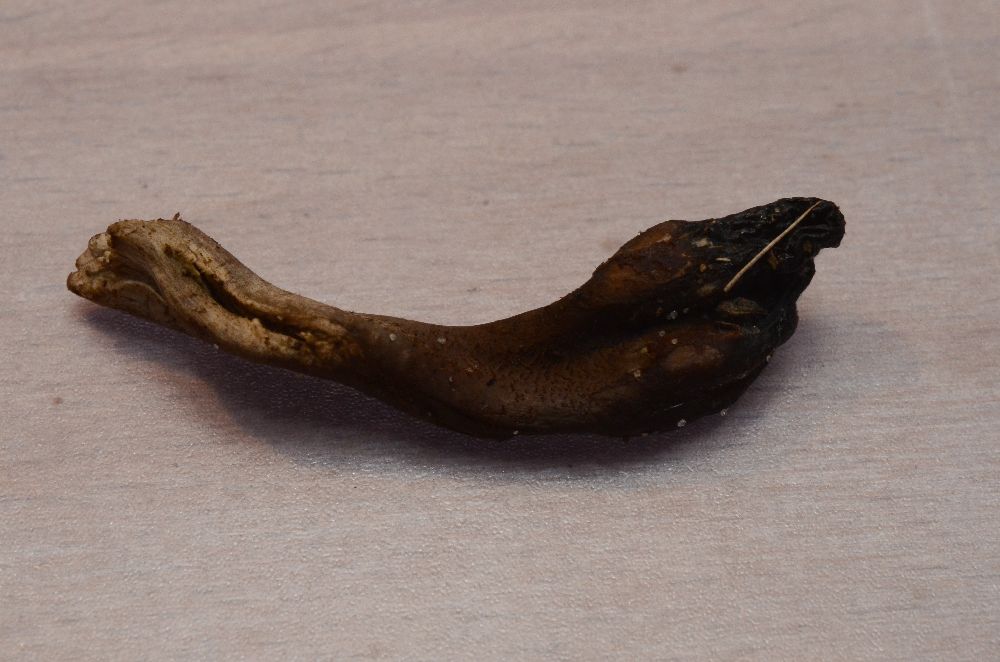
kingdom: Fungi
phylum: Ascomycota
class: Geoglossomycetes
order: Geoglossales
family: Geoglossaceae
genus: Geoglossum
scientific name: Geoglossum atropurpureum
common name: purpursort farvetunge
